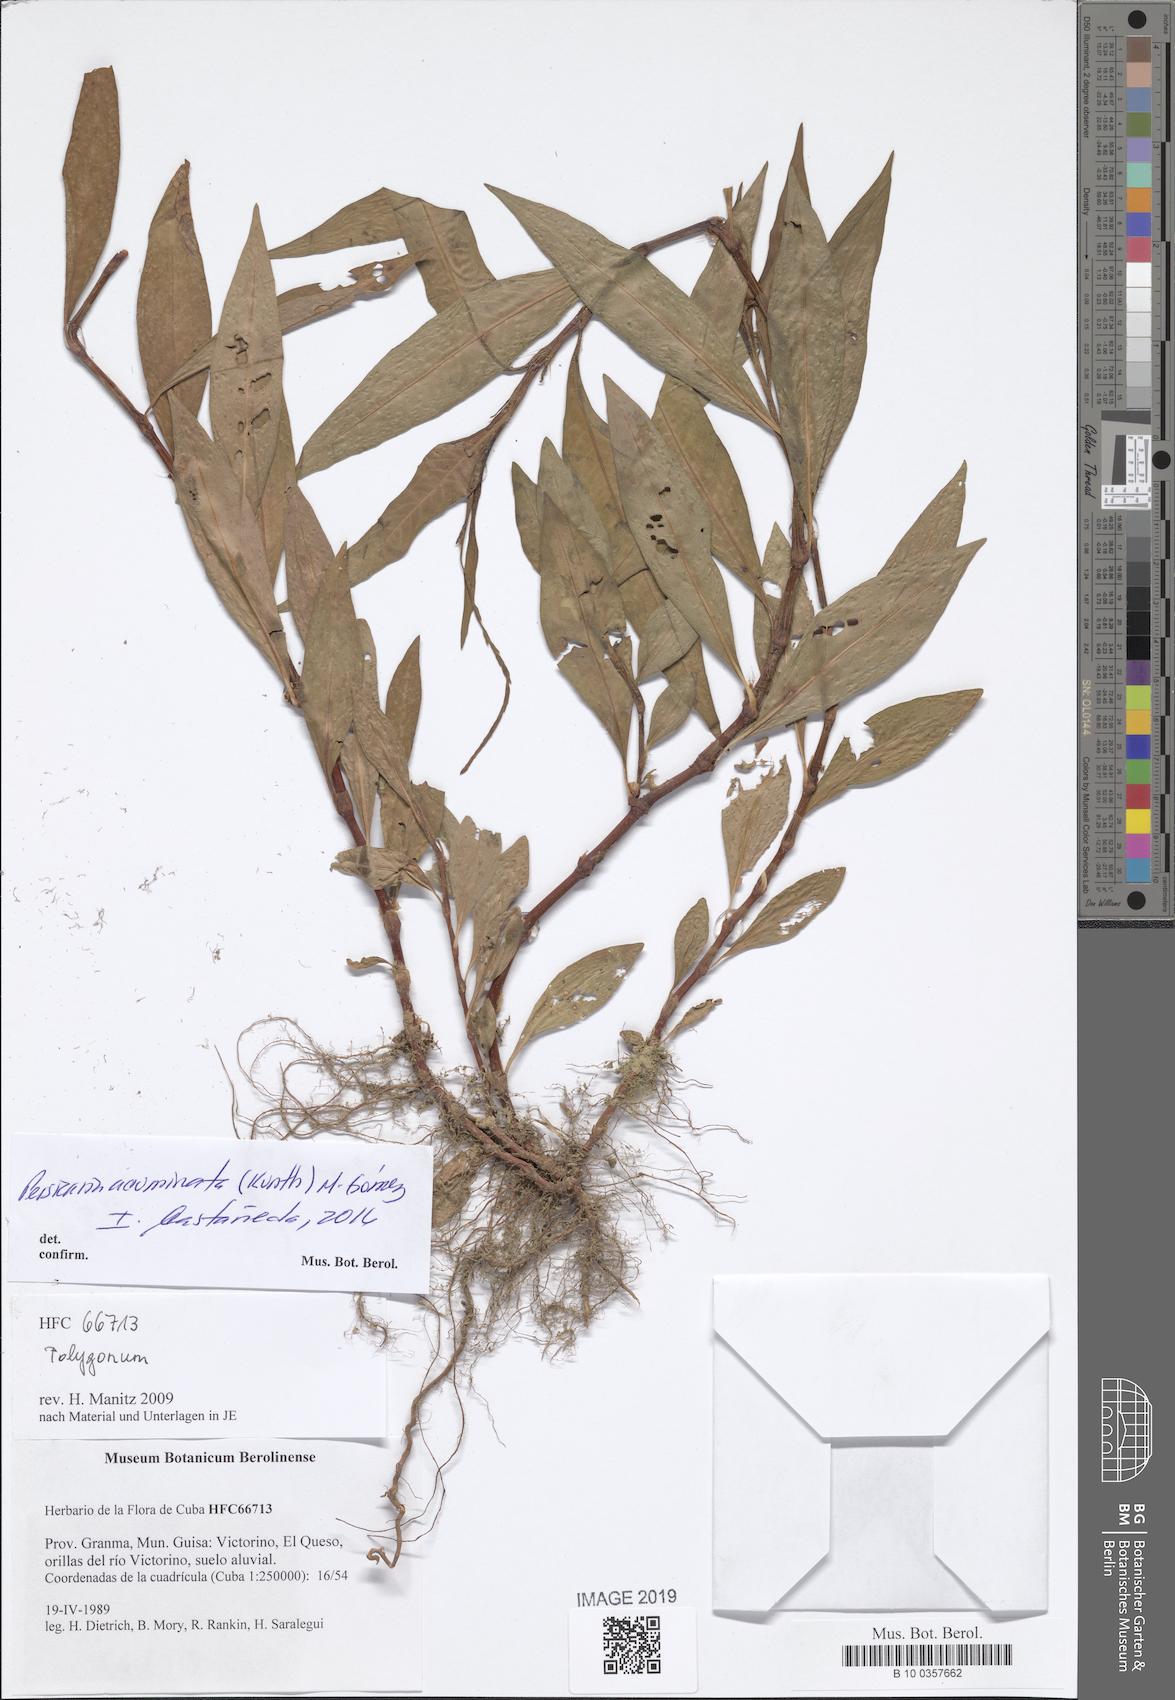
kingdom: Plantae
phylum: Tracheophyta
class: Magnoliopsida
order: Caryophyllales
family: Polygonaceae
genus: Persicaria
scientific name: Persicaria punctata
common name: Dotted smartweed
